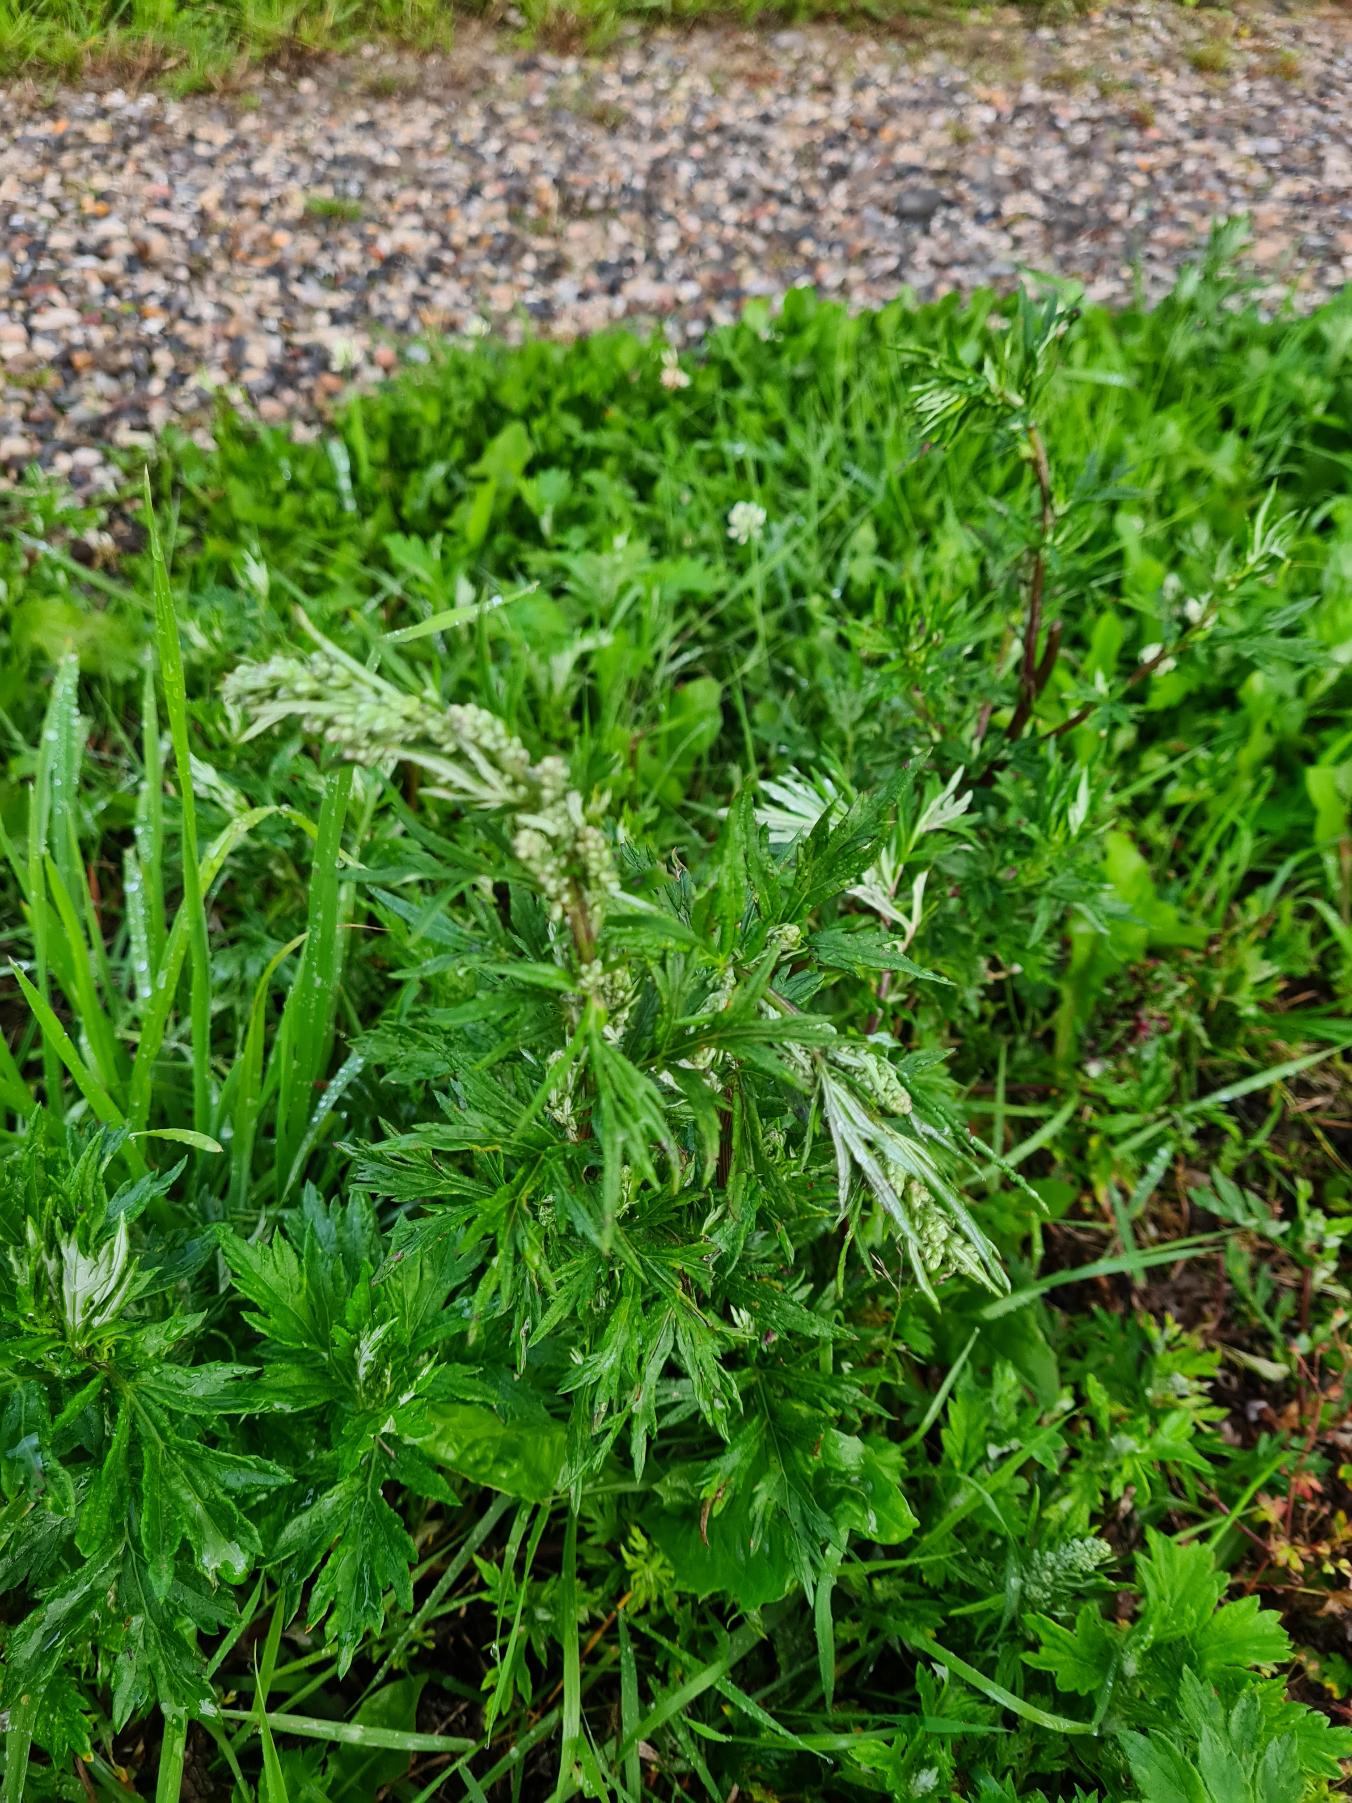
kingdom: Plantae
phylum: Tracheophyta
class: Magnoliopsida
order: Asterales
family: Asteraceae
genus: Artemisia
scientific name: Artemisia vulgaris
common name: Grå-bynke
